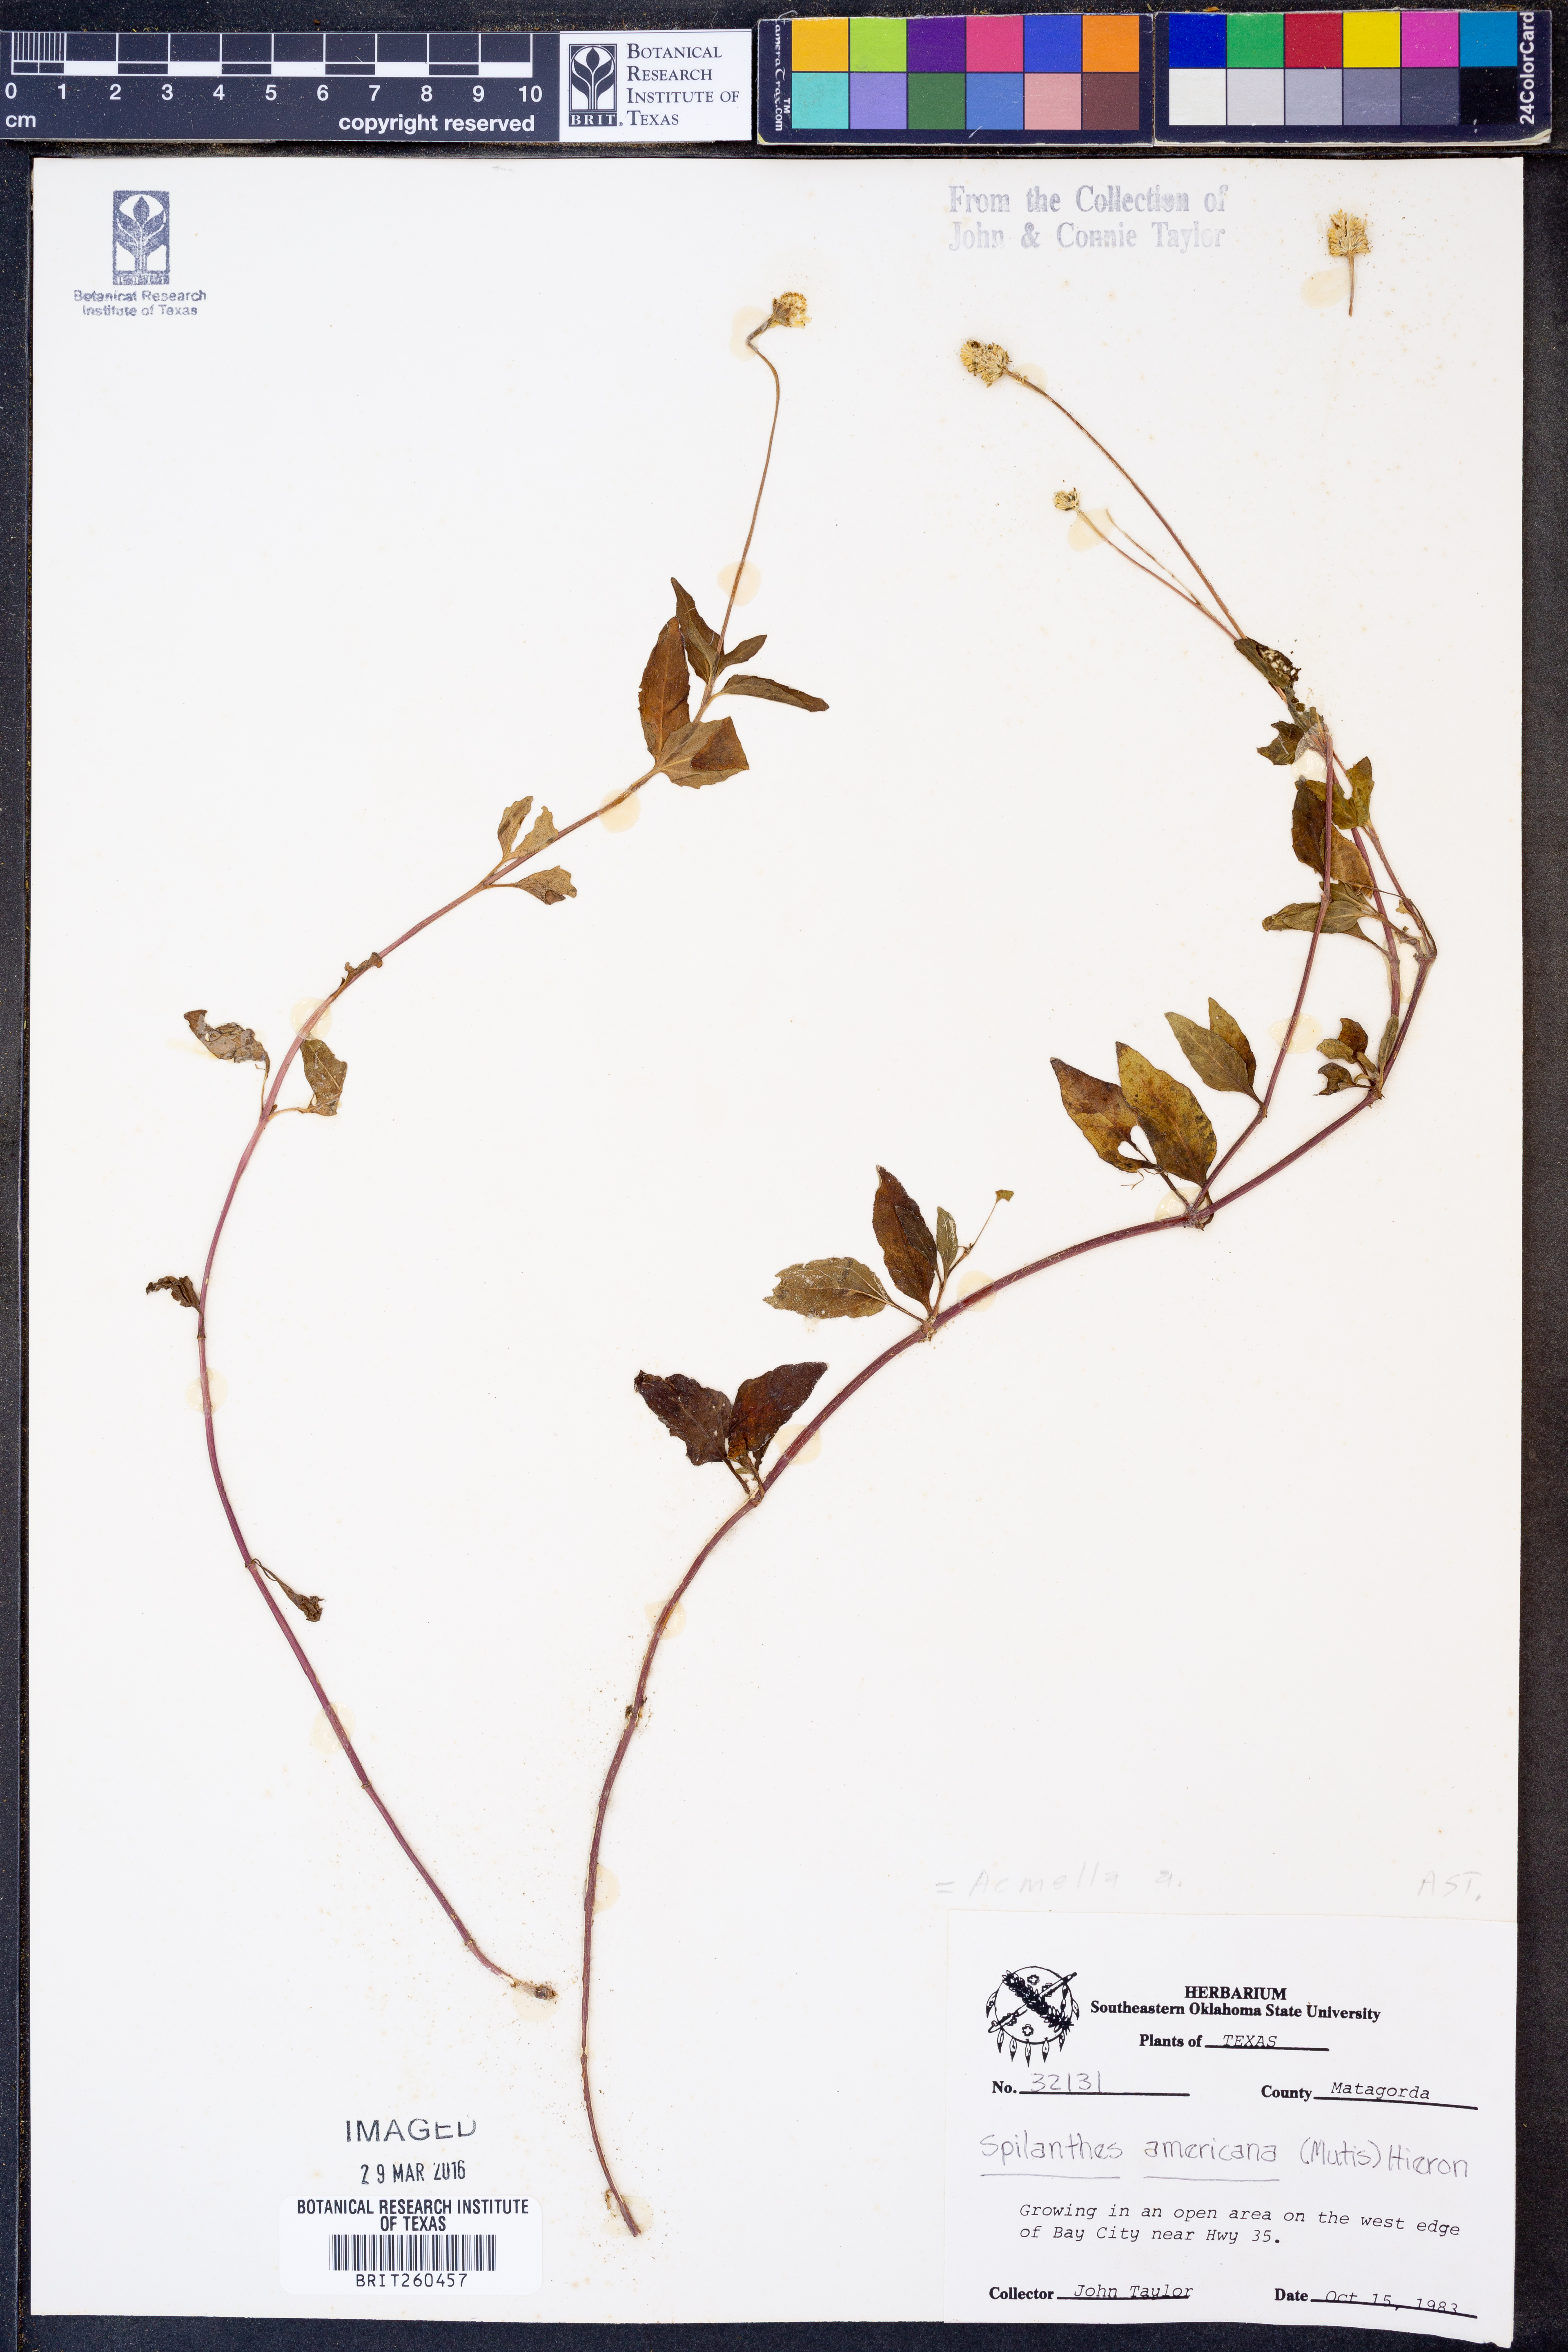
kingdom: Plantae
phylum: Tracheophyta
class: Magnoliopsida
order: Asterales
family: Asteraceae
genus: Acmella
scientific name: Acmella
